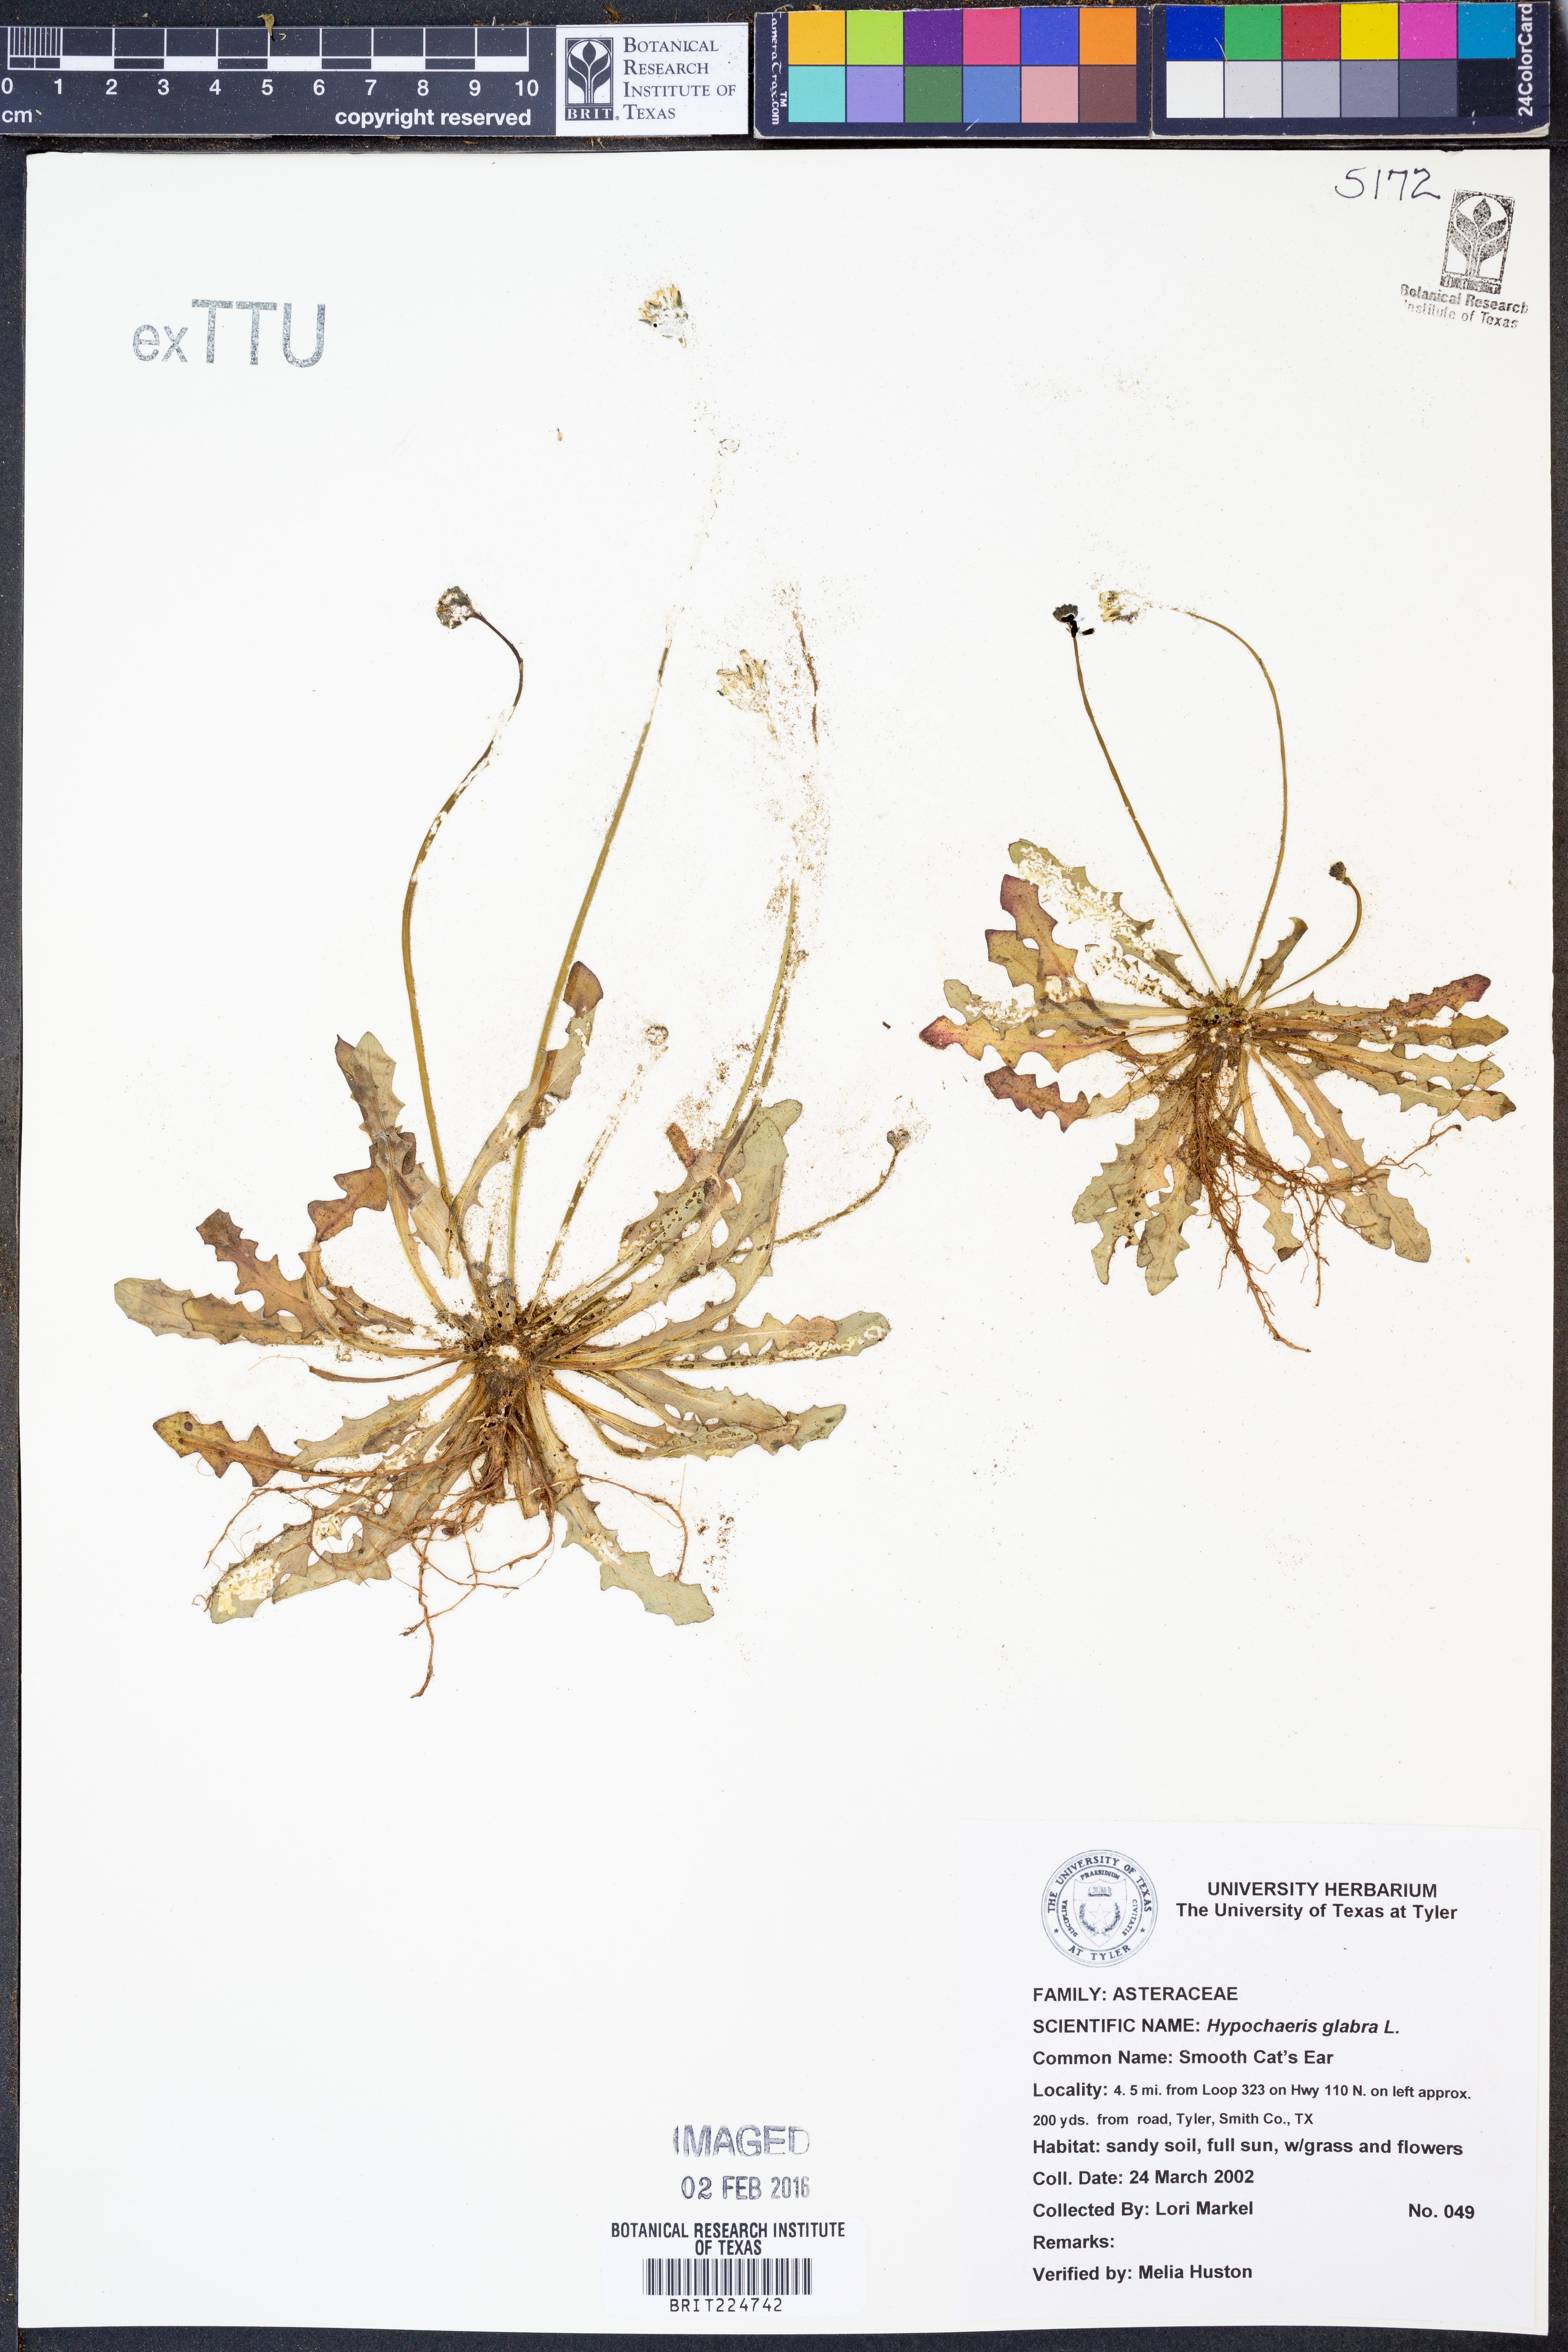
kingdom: Plantae
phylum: Tracheophyta
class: Magnoliopsida
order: Asterales
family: Asteraceae
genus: Hypochaeris
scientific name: Hypochaeris glabra
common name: Smooth catsear
